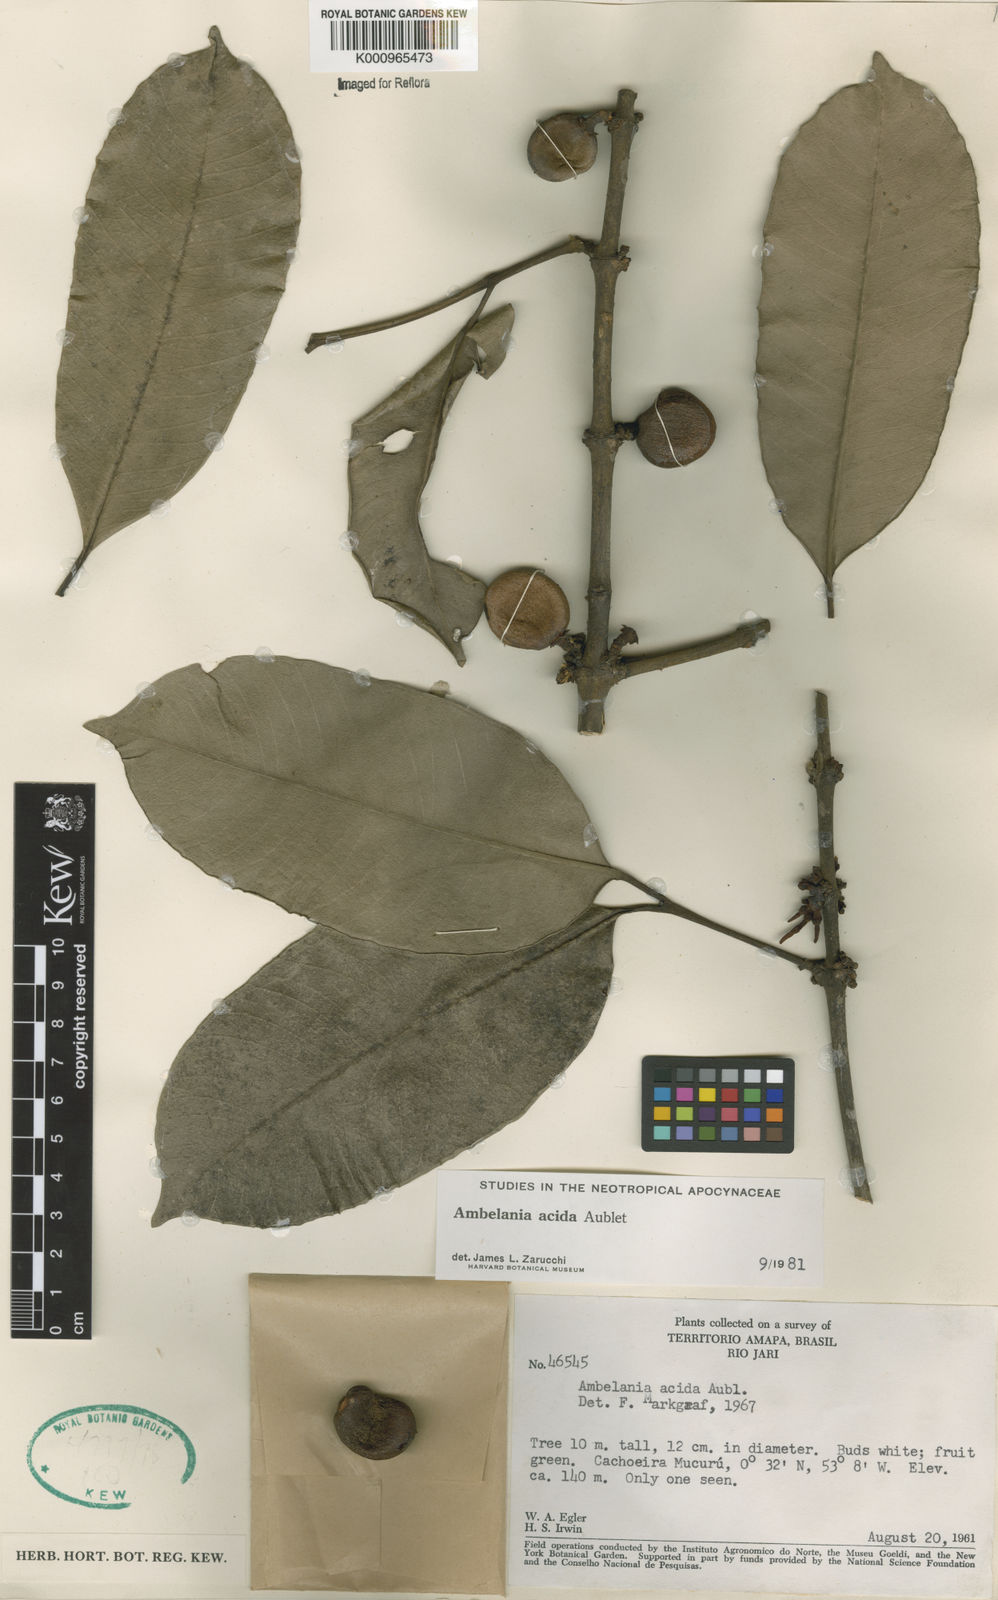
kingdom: Plantae
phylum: Tracheophyta
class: Magnoliopsida
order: Gentianales
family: Apocynaceae
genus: Ambelania
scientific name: Ambelania acida
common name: Bagasse
